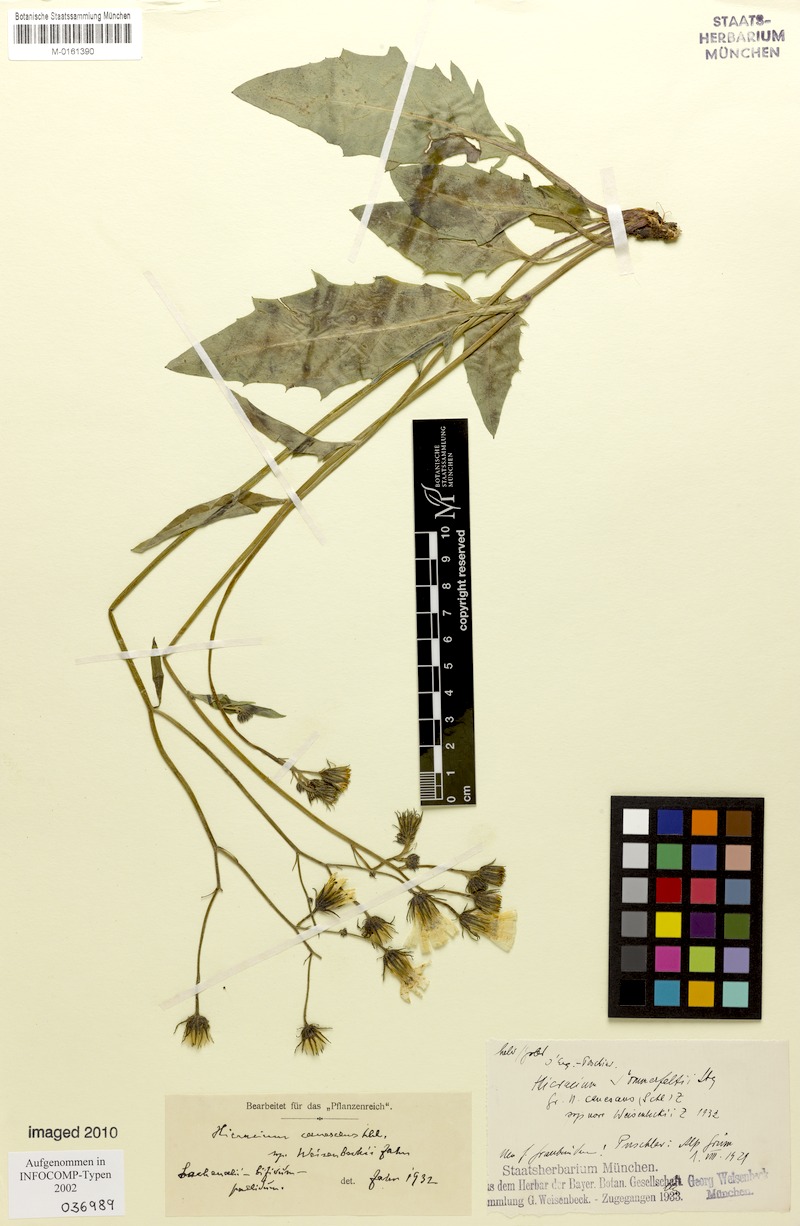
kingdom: Plantae
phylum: Tracheophyta
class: Magnoliopsida
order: Asterales
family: Asteraceae
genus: Hieracium
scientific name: Hieracium canescens
